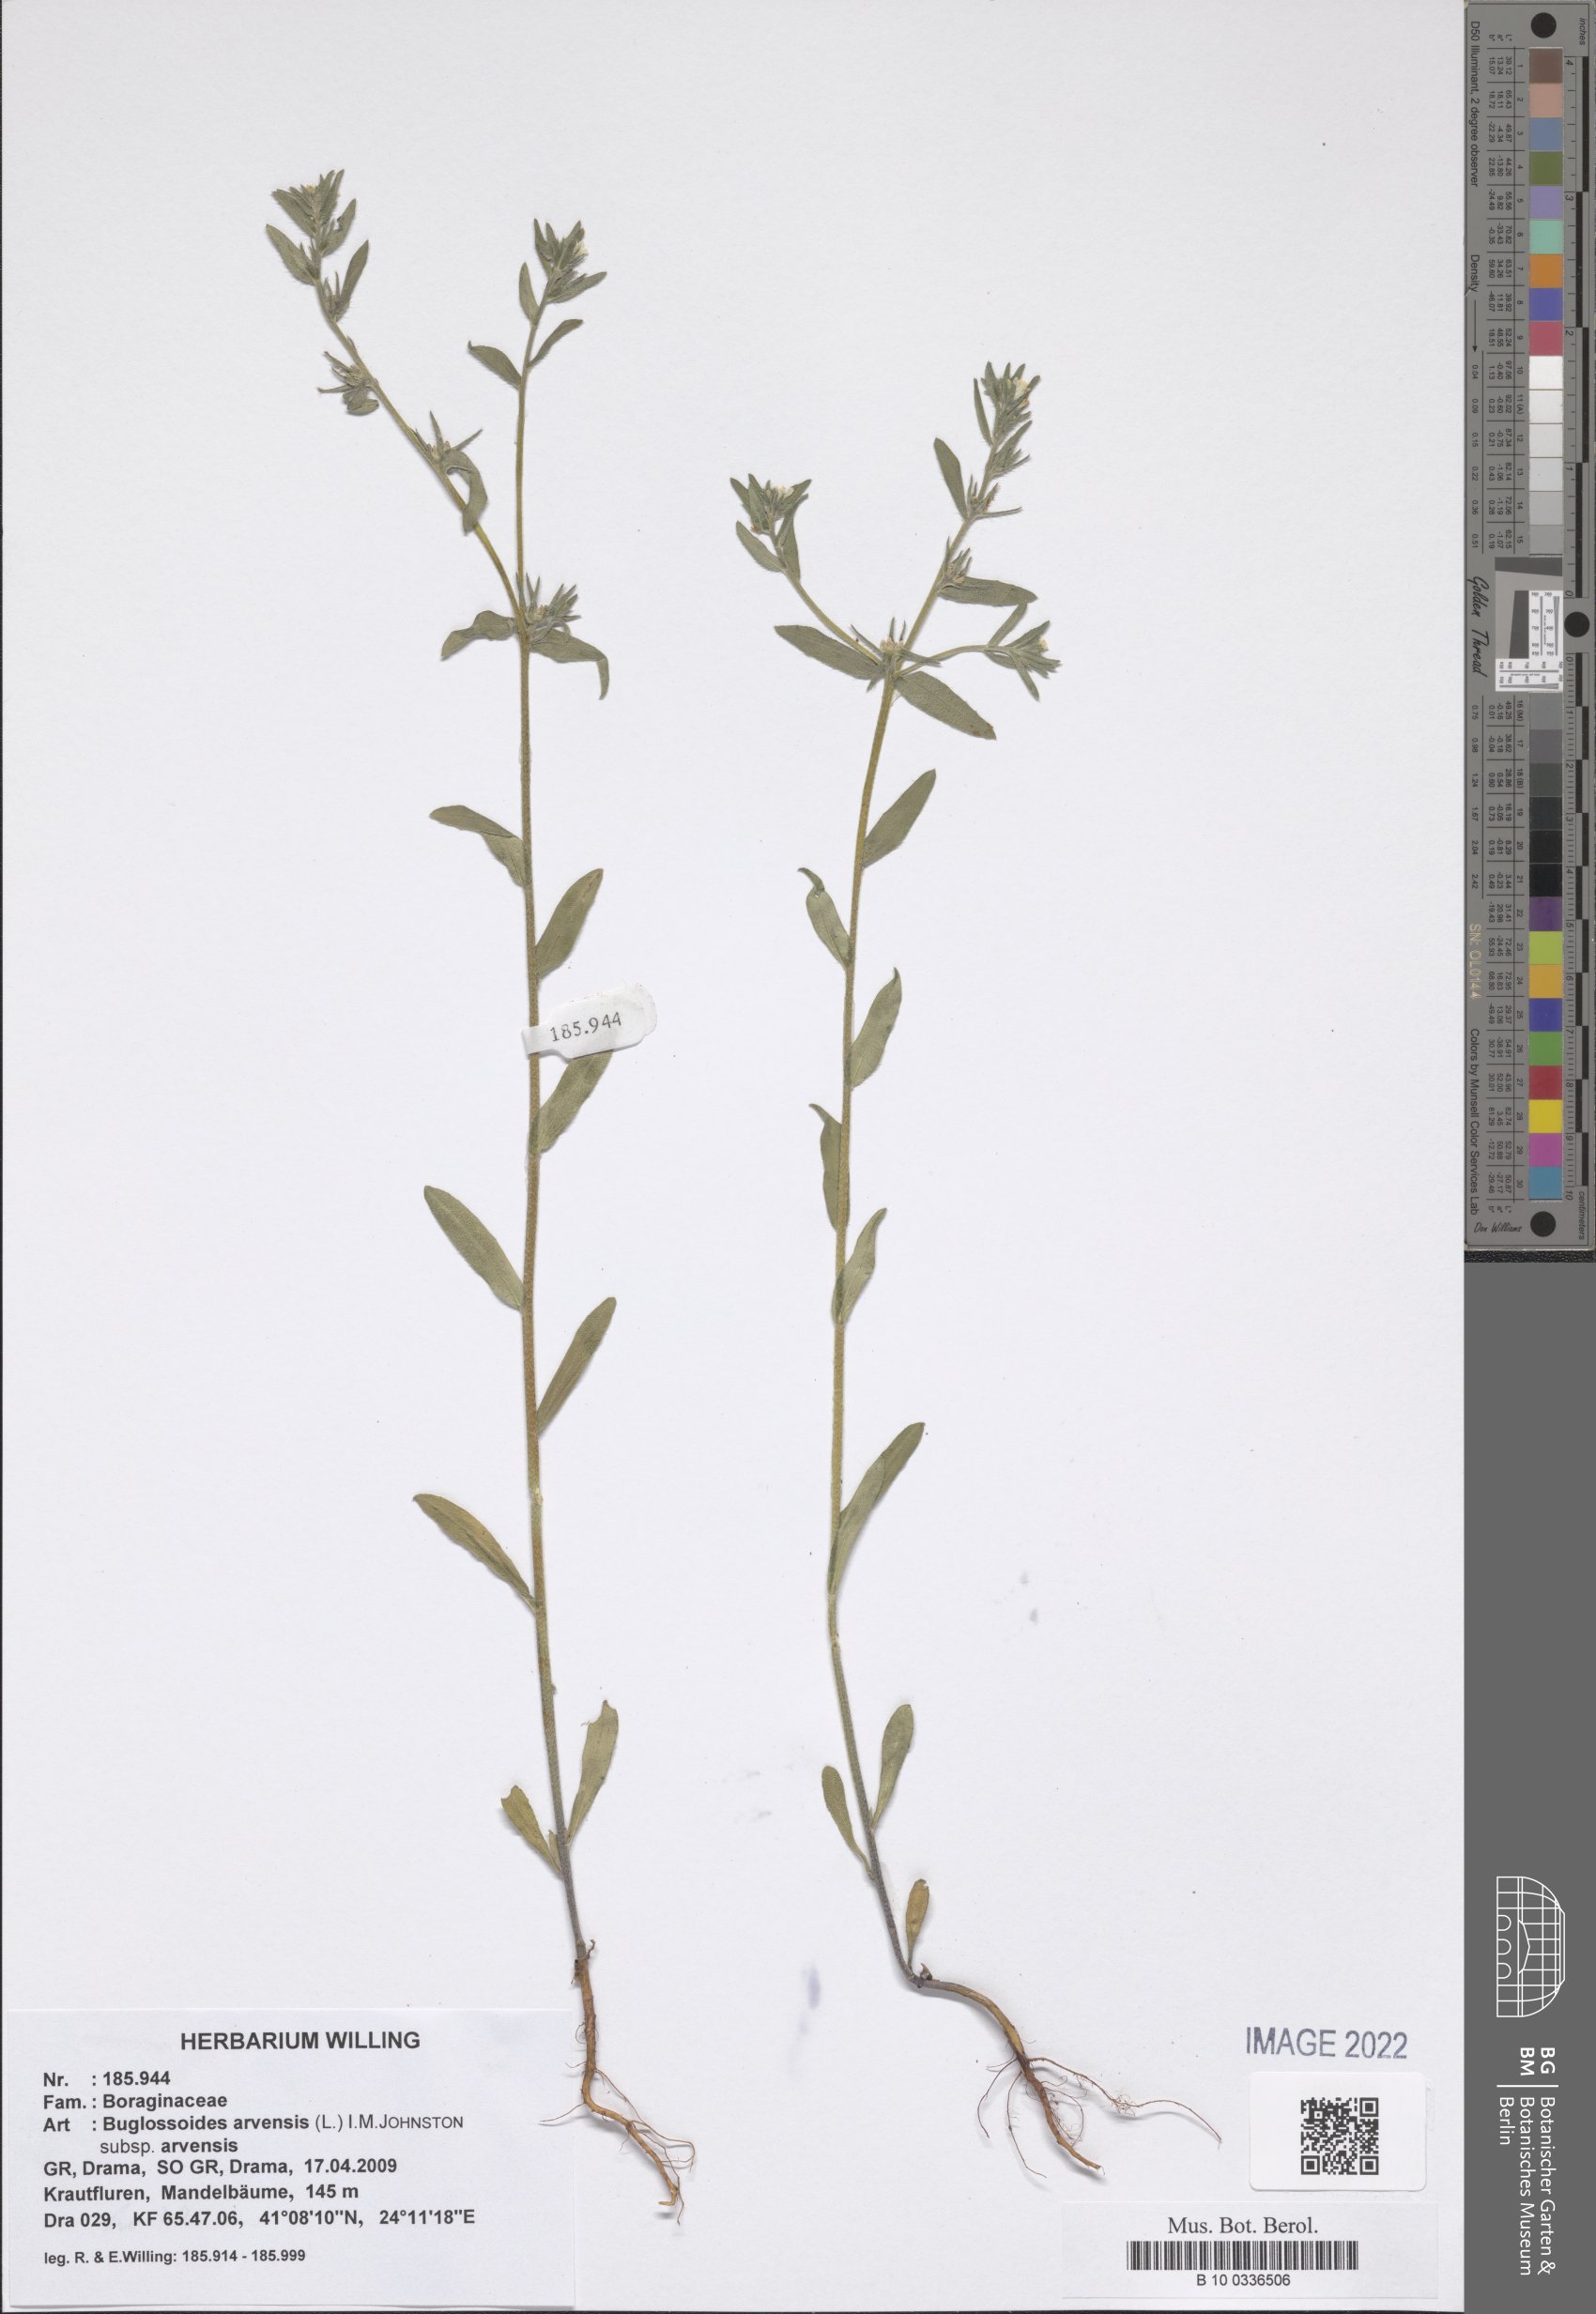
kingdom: Plantae
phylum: Tracheophyta
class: Magnoliopsida
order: Boraginales
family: Boraginaceae
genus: Buglossoides
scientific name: Buglossoides arvensis
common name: Corn gromwell
